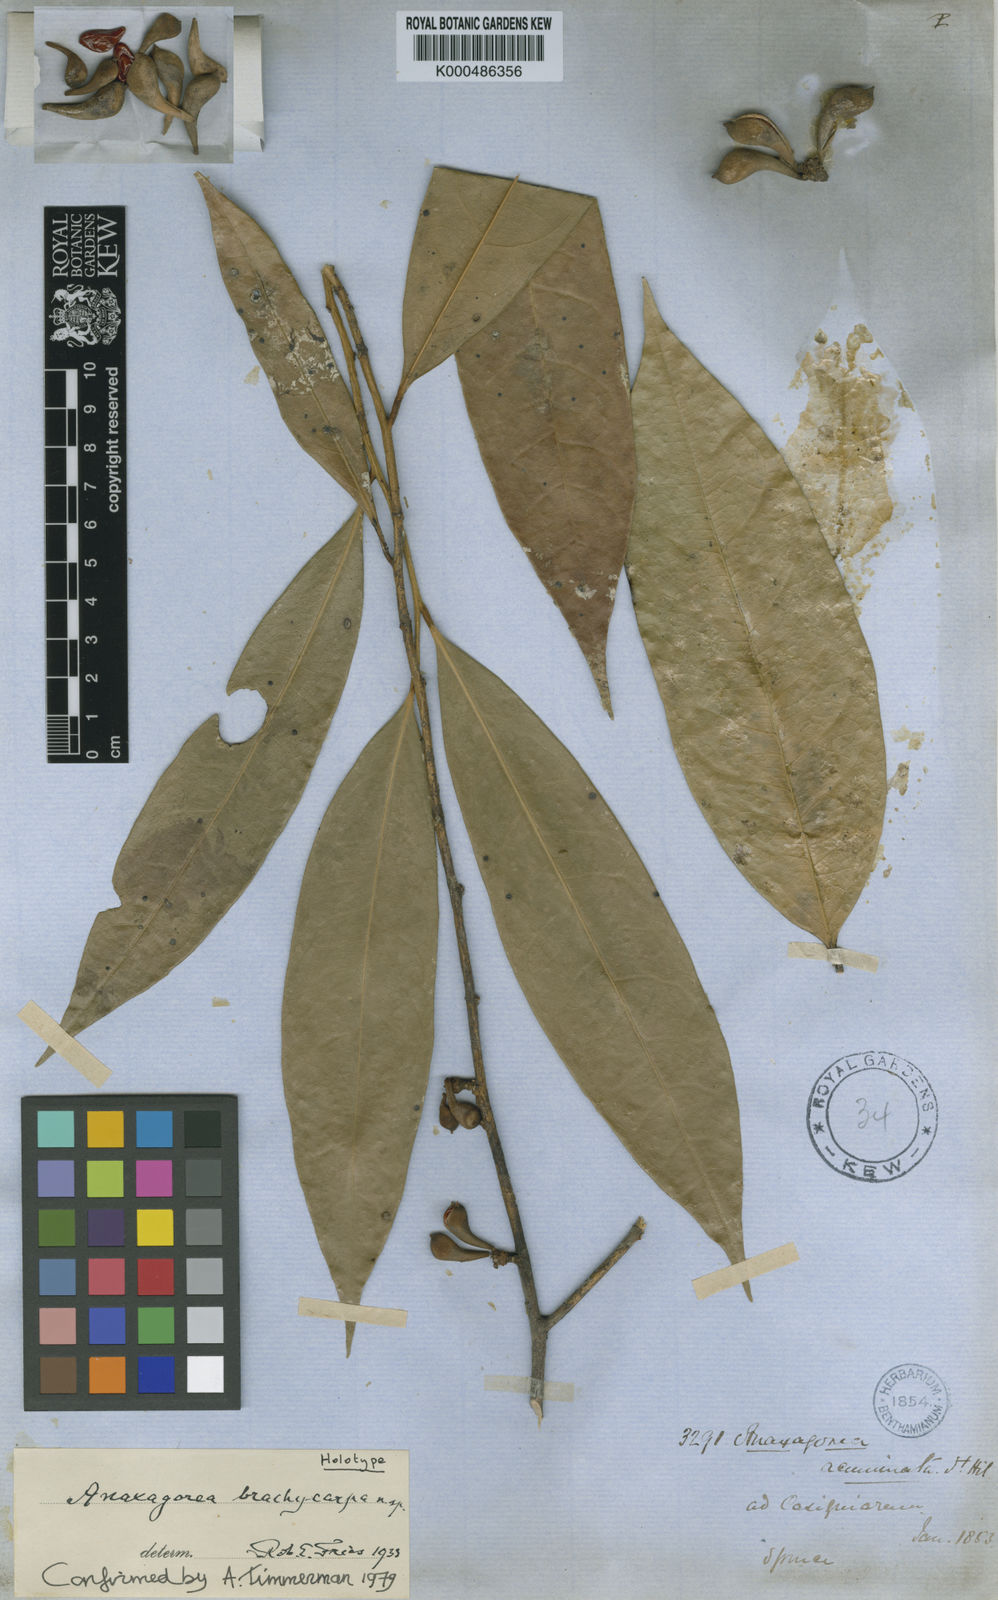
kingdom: Plantae
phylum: Tracheophyta
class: Magnoliopsida
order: Magnoliales
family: Annonaceae
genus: Anaxagorea
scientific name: Anaxagorea brachycarpa
